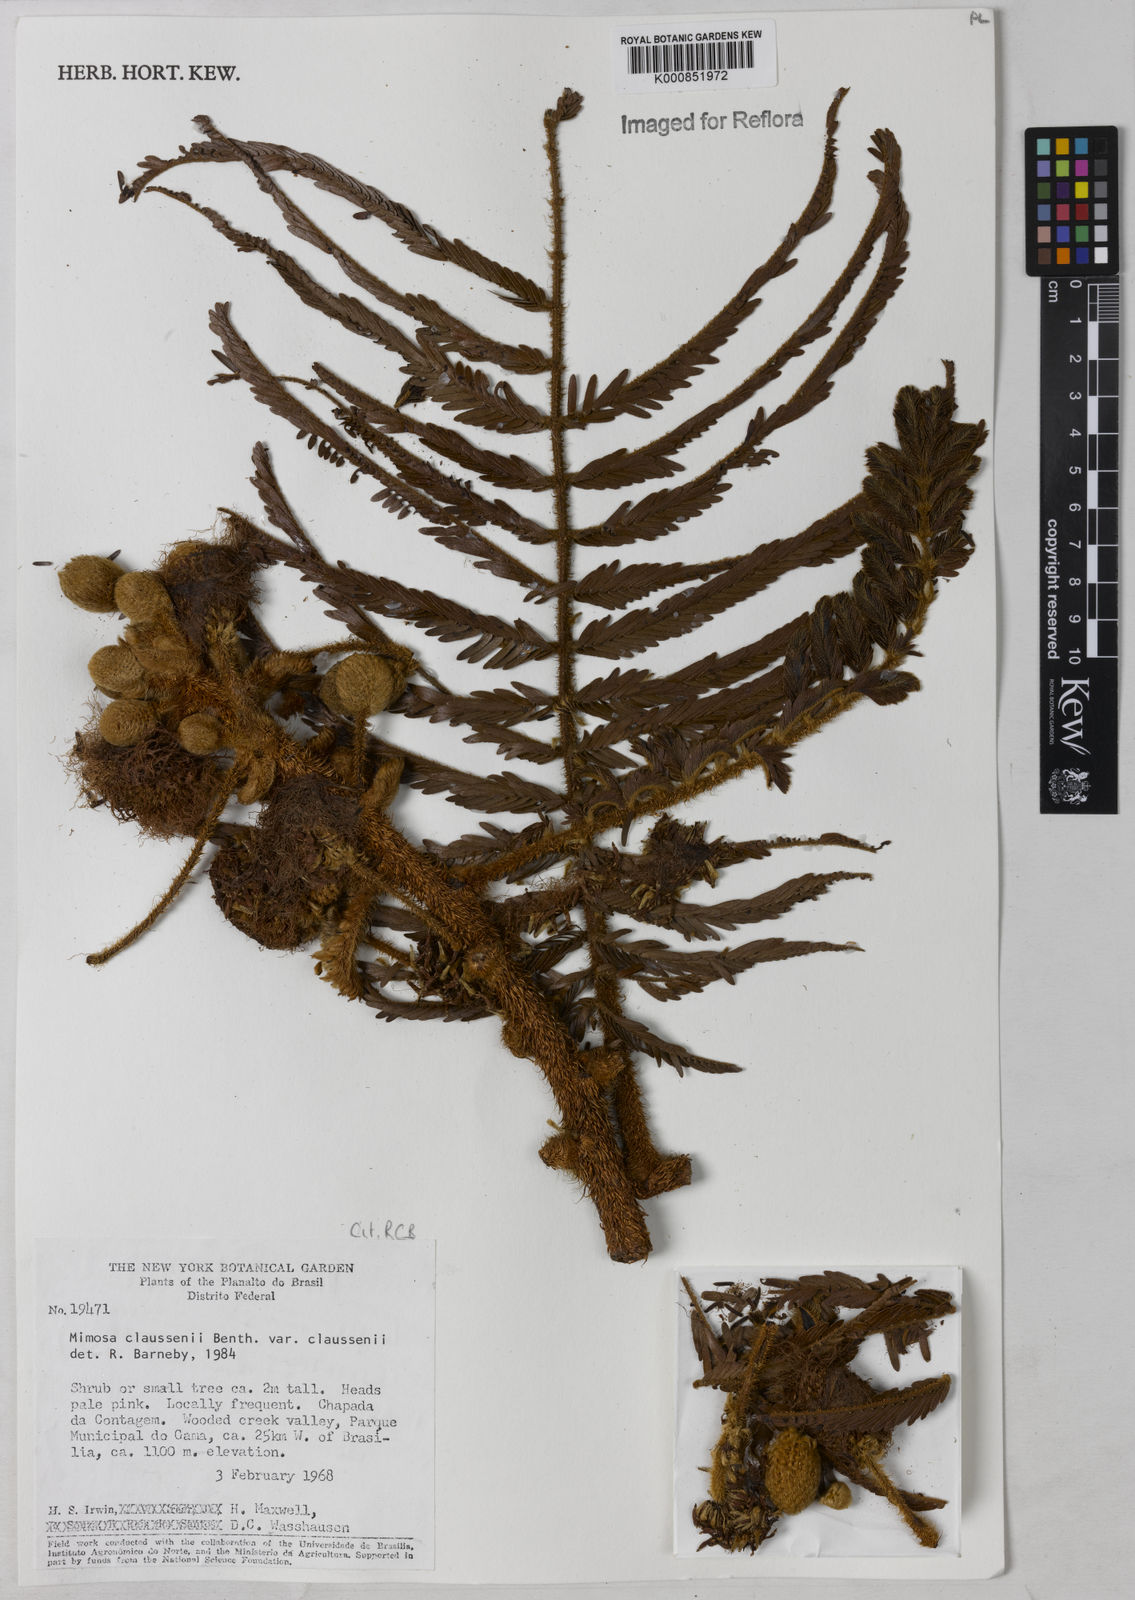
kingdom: Plantae
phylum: Tracheophyta
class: Magnoliopsida
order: Fabales
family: Fabaceae
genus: Mimosa
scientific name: Mimosa claussenii
